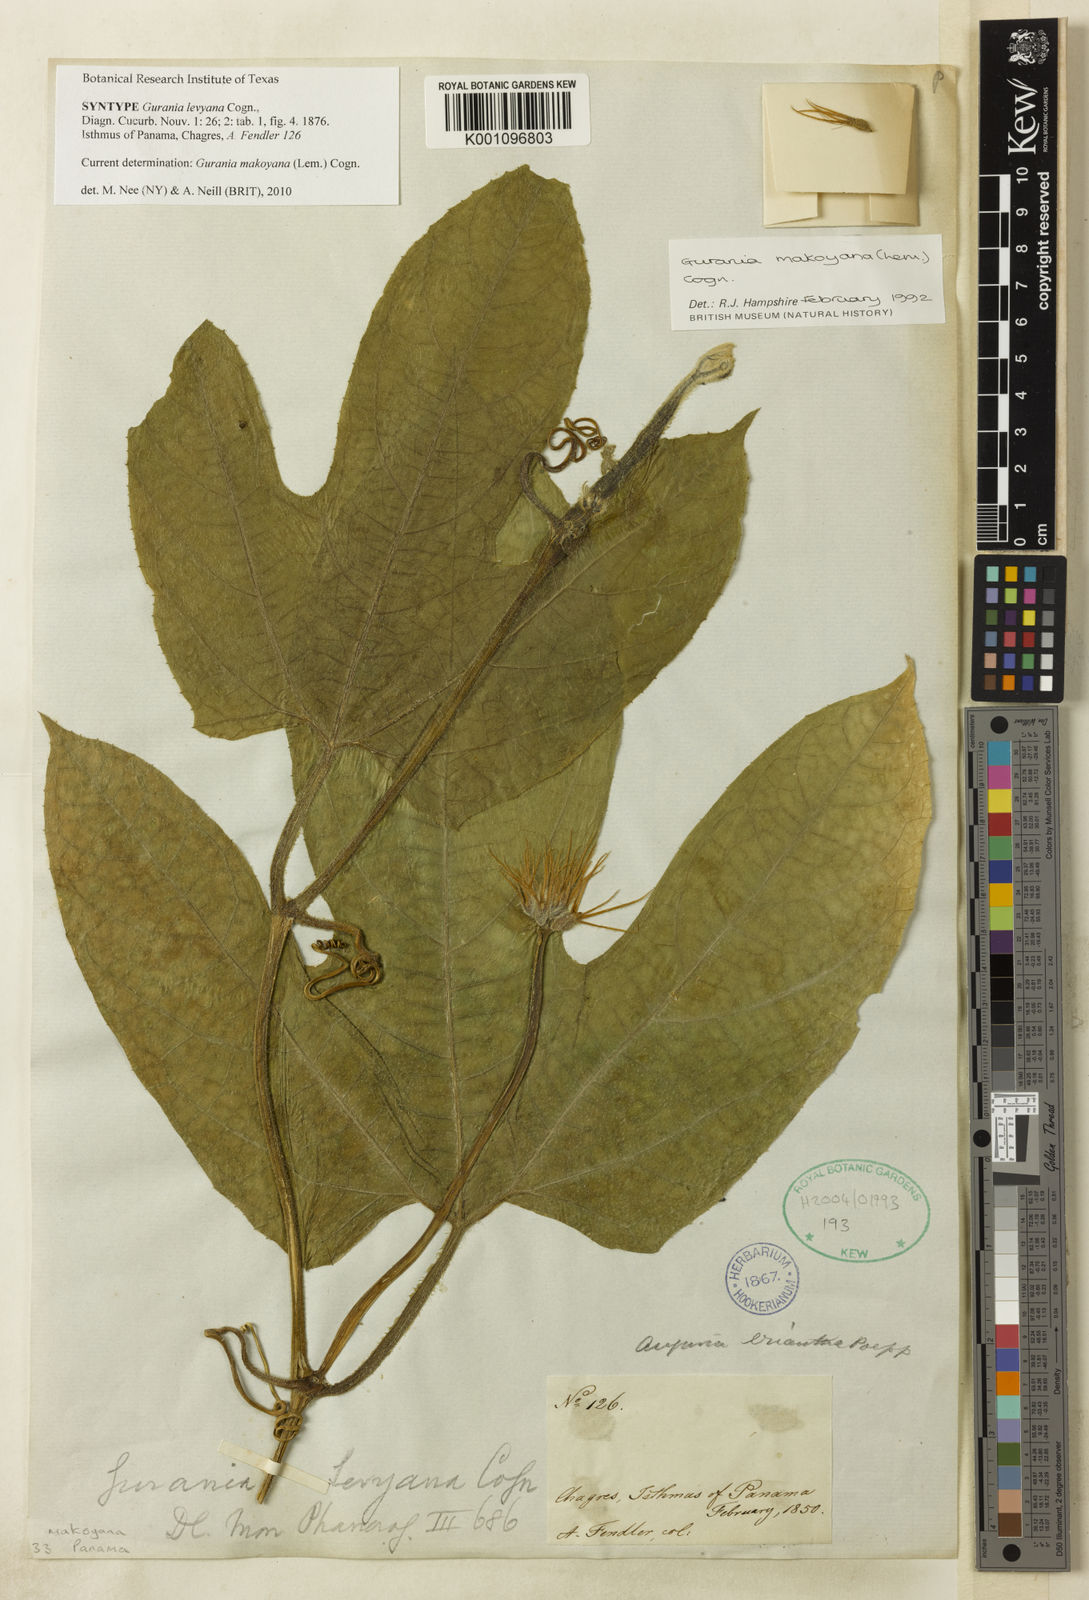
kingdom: Plantae
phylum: Tracheophyta
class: Magnoliopsida
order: Cucurbitales
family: Cucurbitaceae
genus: Gurania
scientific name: Gurania makoyana
